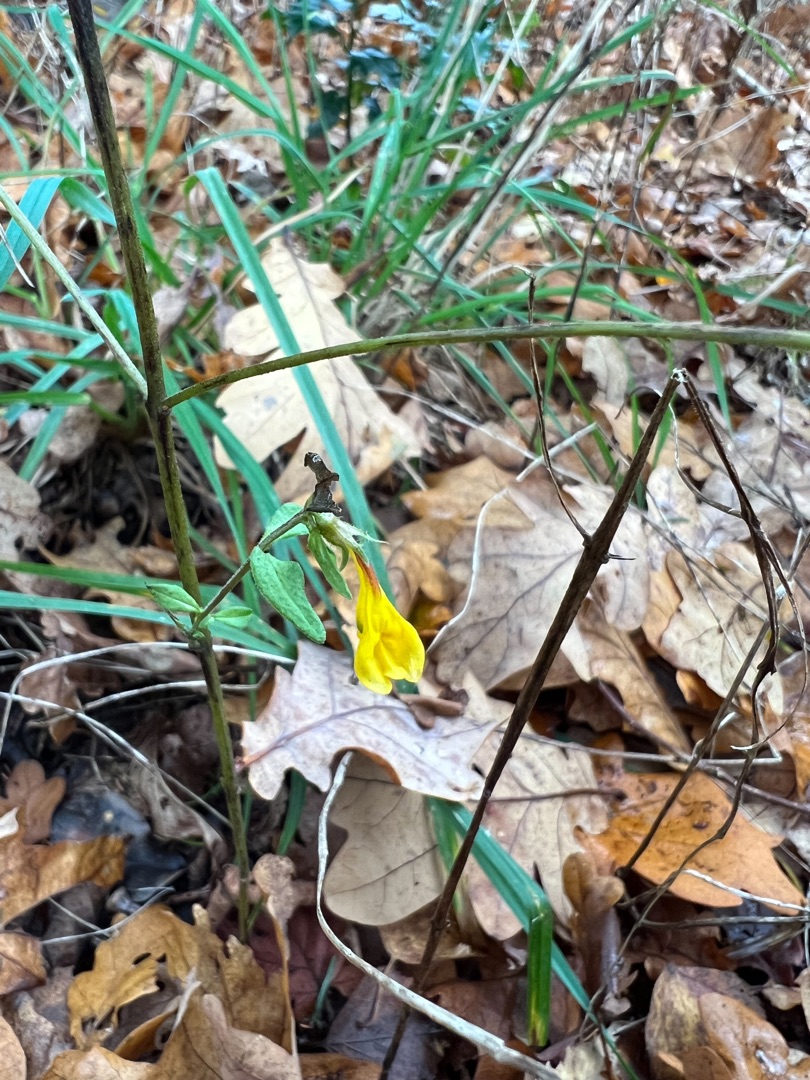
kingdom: Plantae
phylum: Tracheophyta
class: Magnoliopsida
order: Lamiales
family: Orobanchaceae
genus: Melampyrum
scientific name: Melampyrum nemorosum
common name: Blåtoppet kohvede
